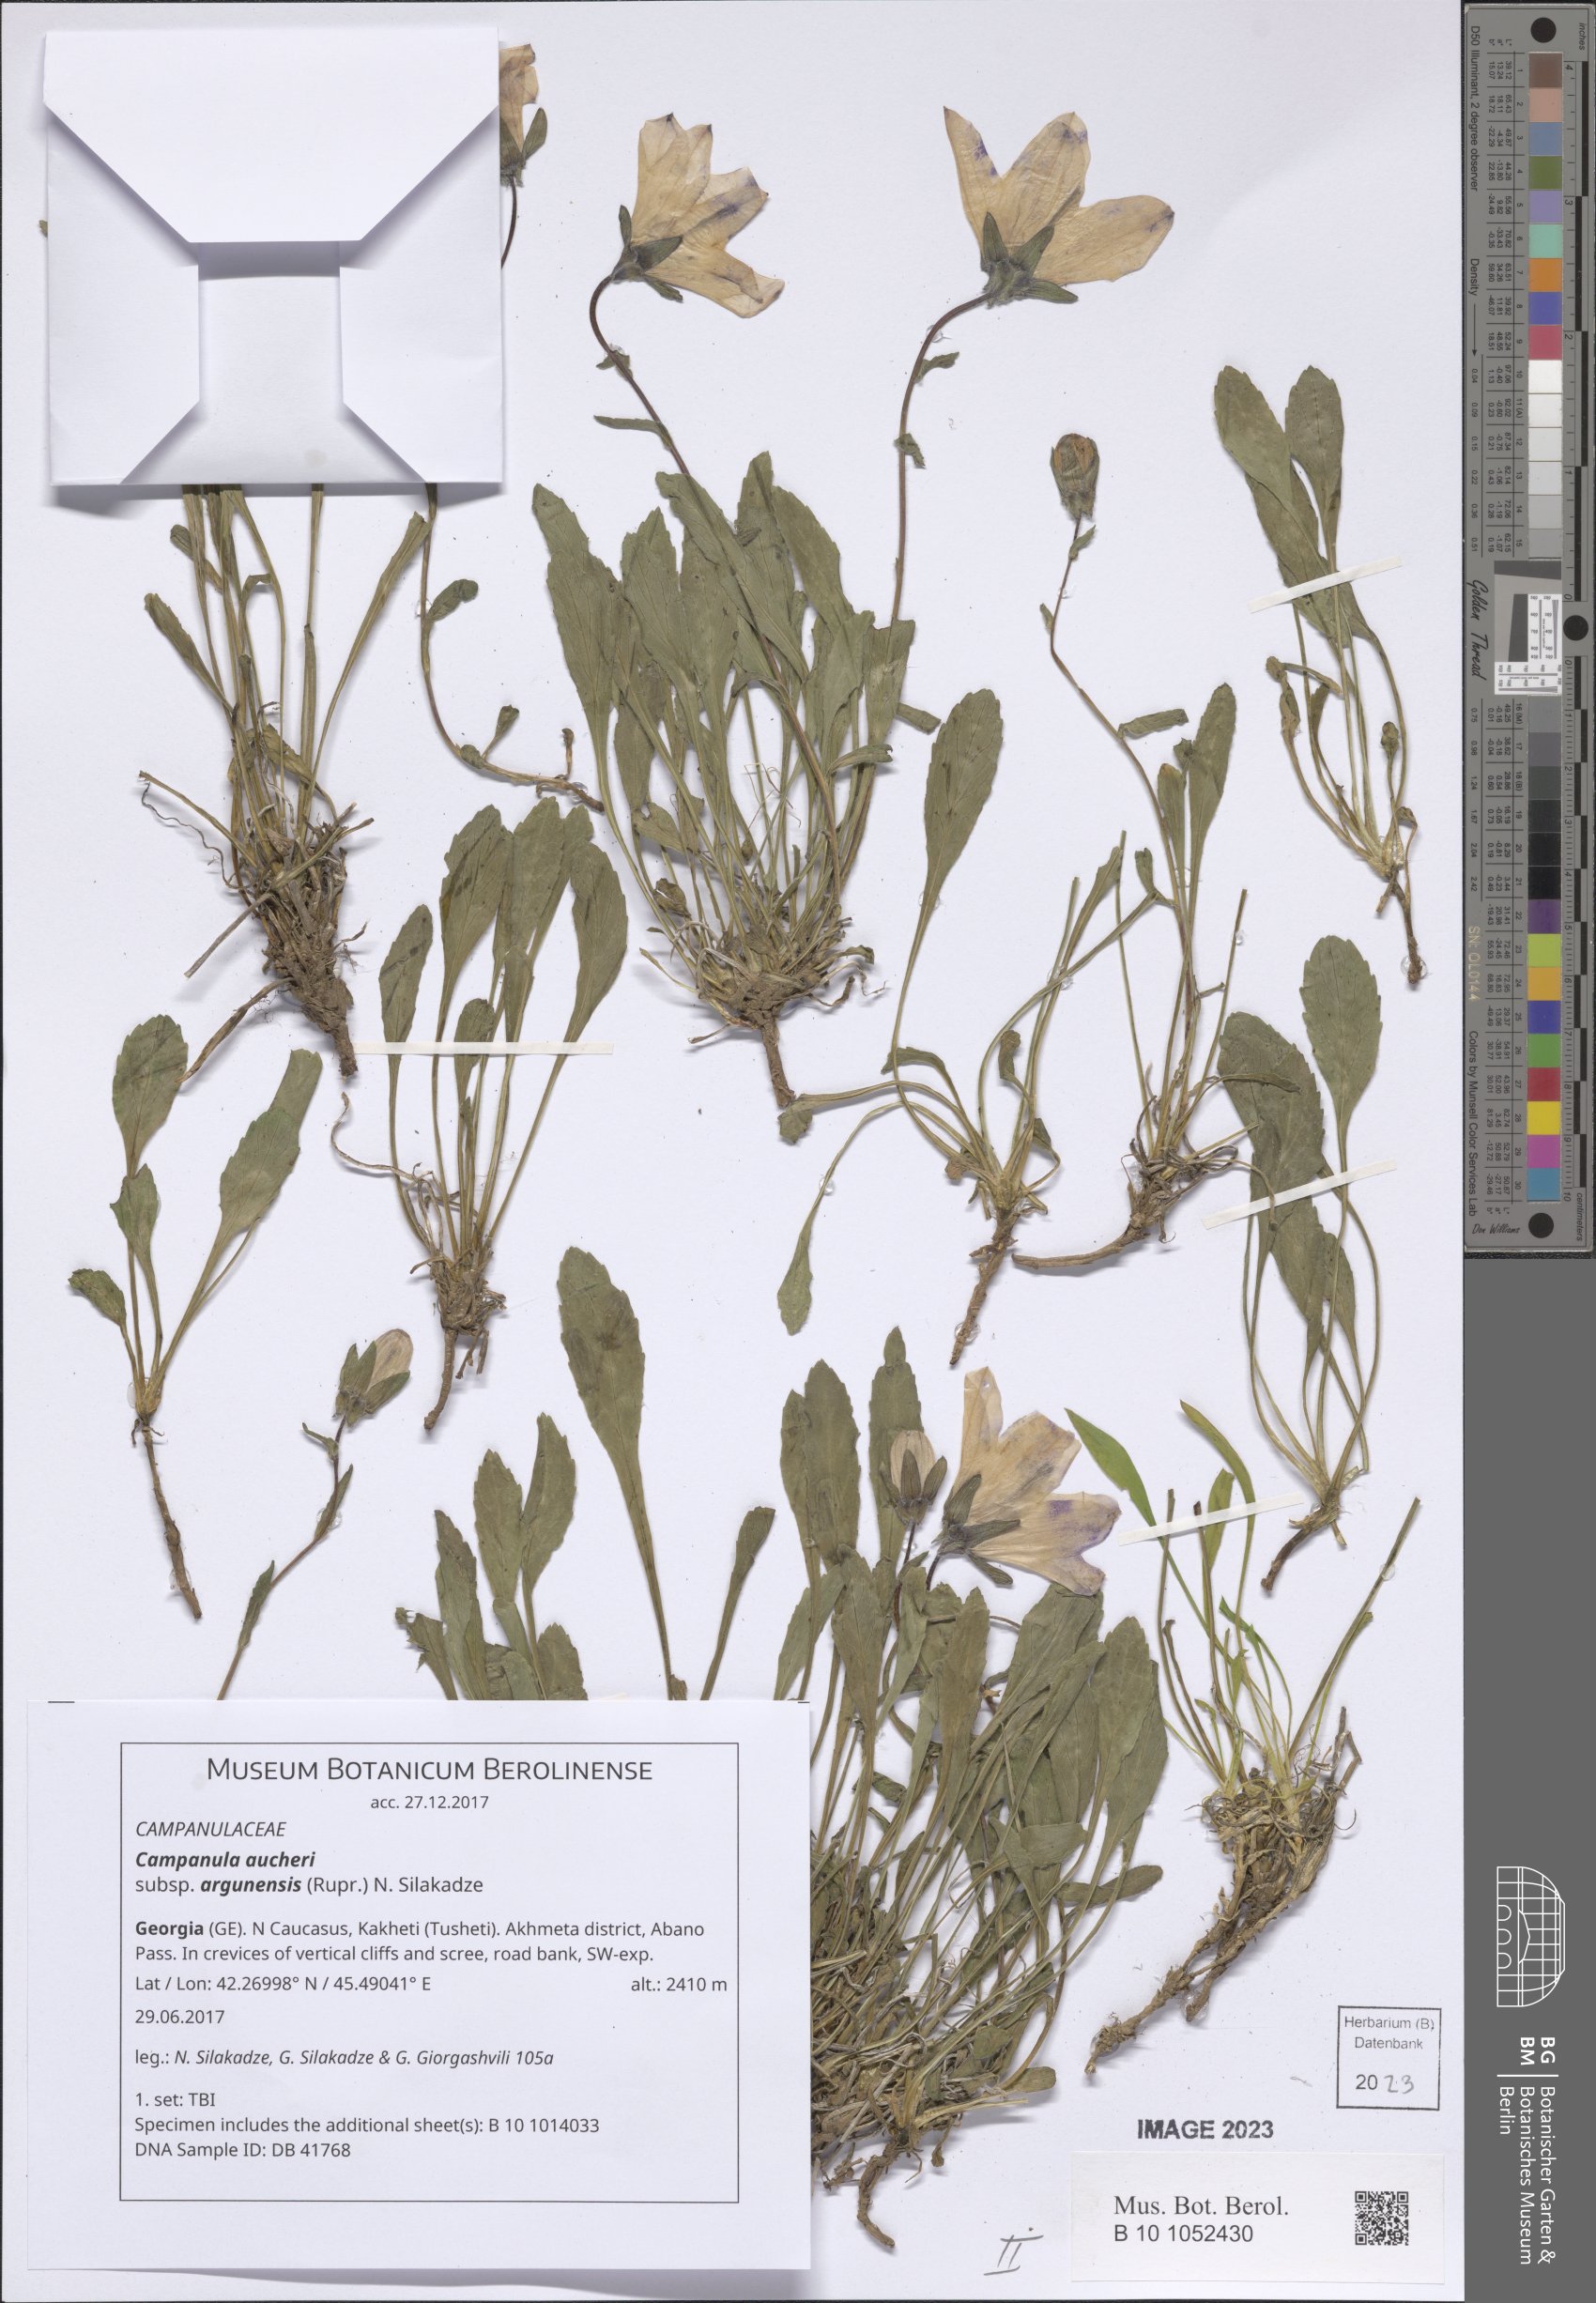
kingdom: Plantae
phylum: Tracheophyta
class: Magnoliopsida
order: Asterales
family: Campanulaceae
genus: Campanula
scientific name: Campanula saxifraga
